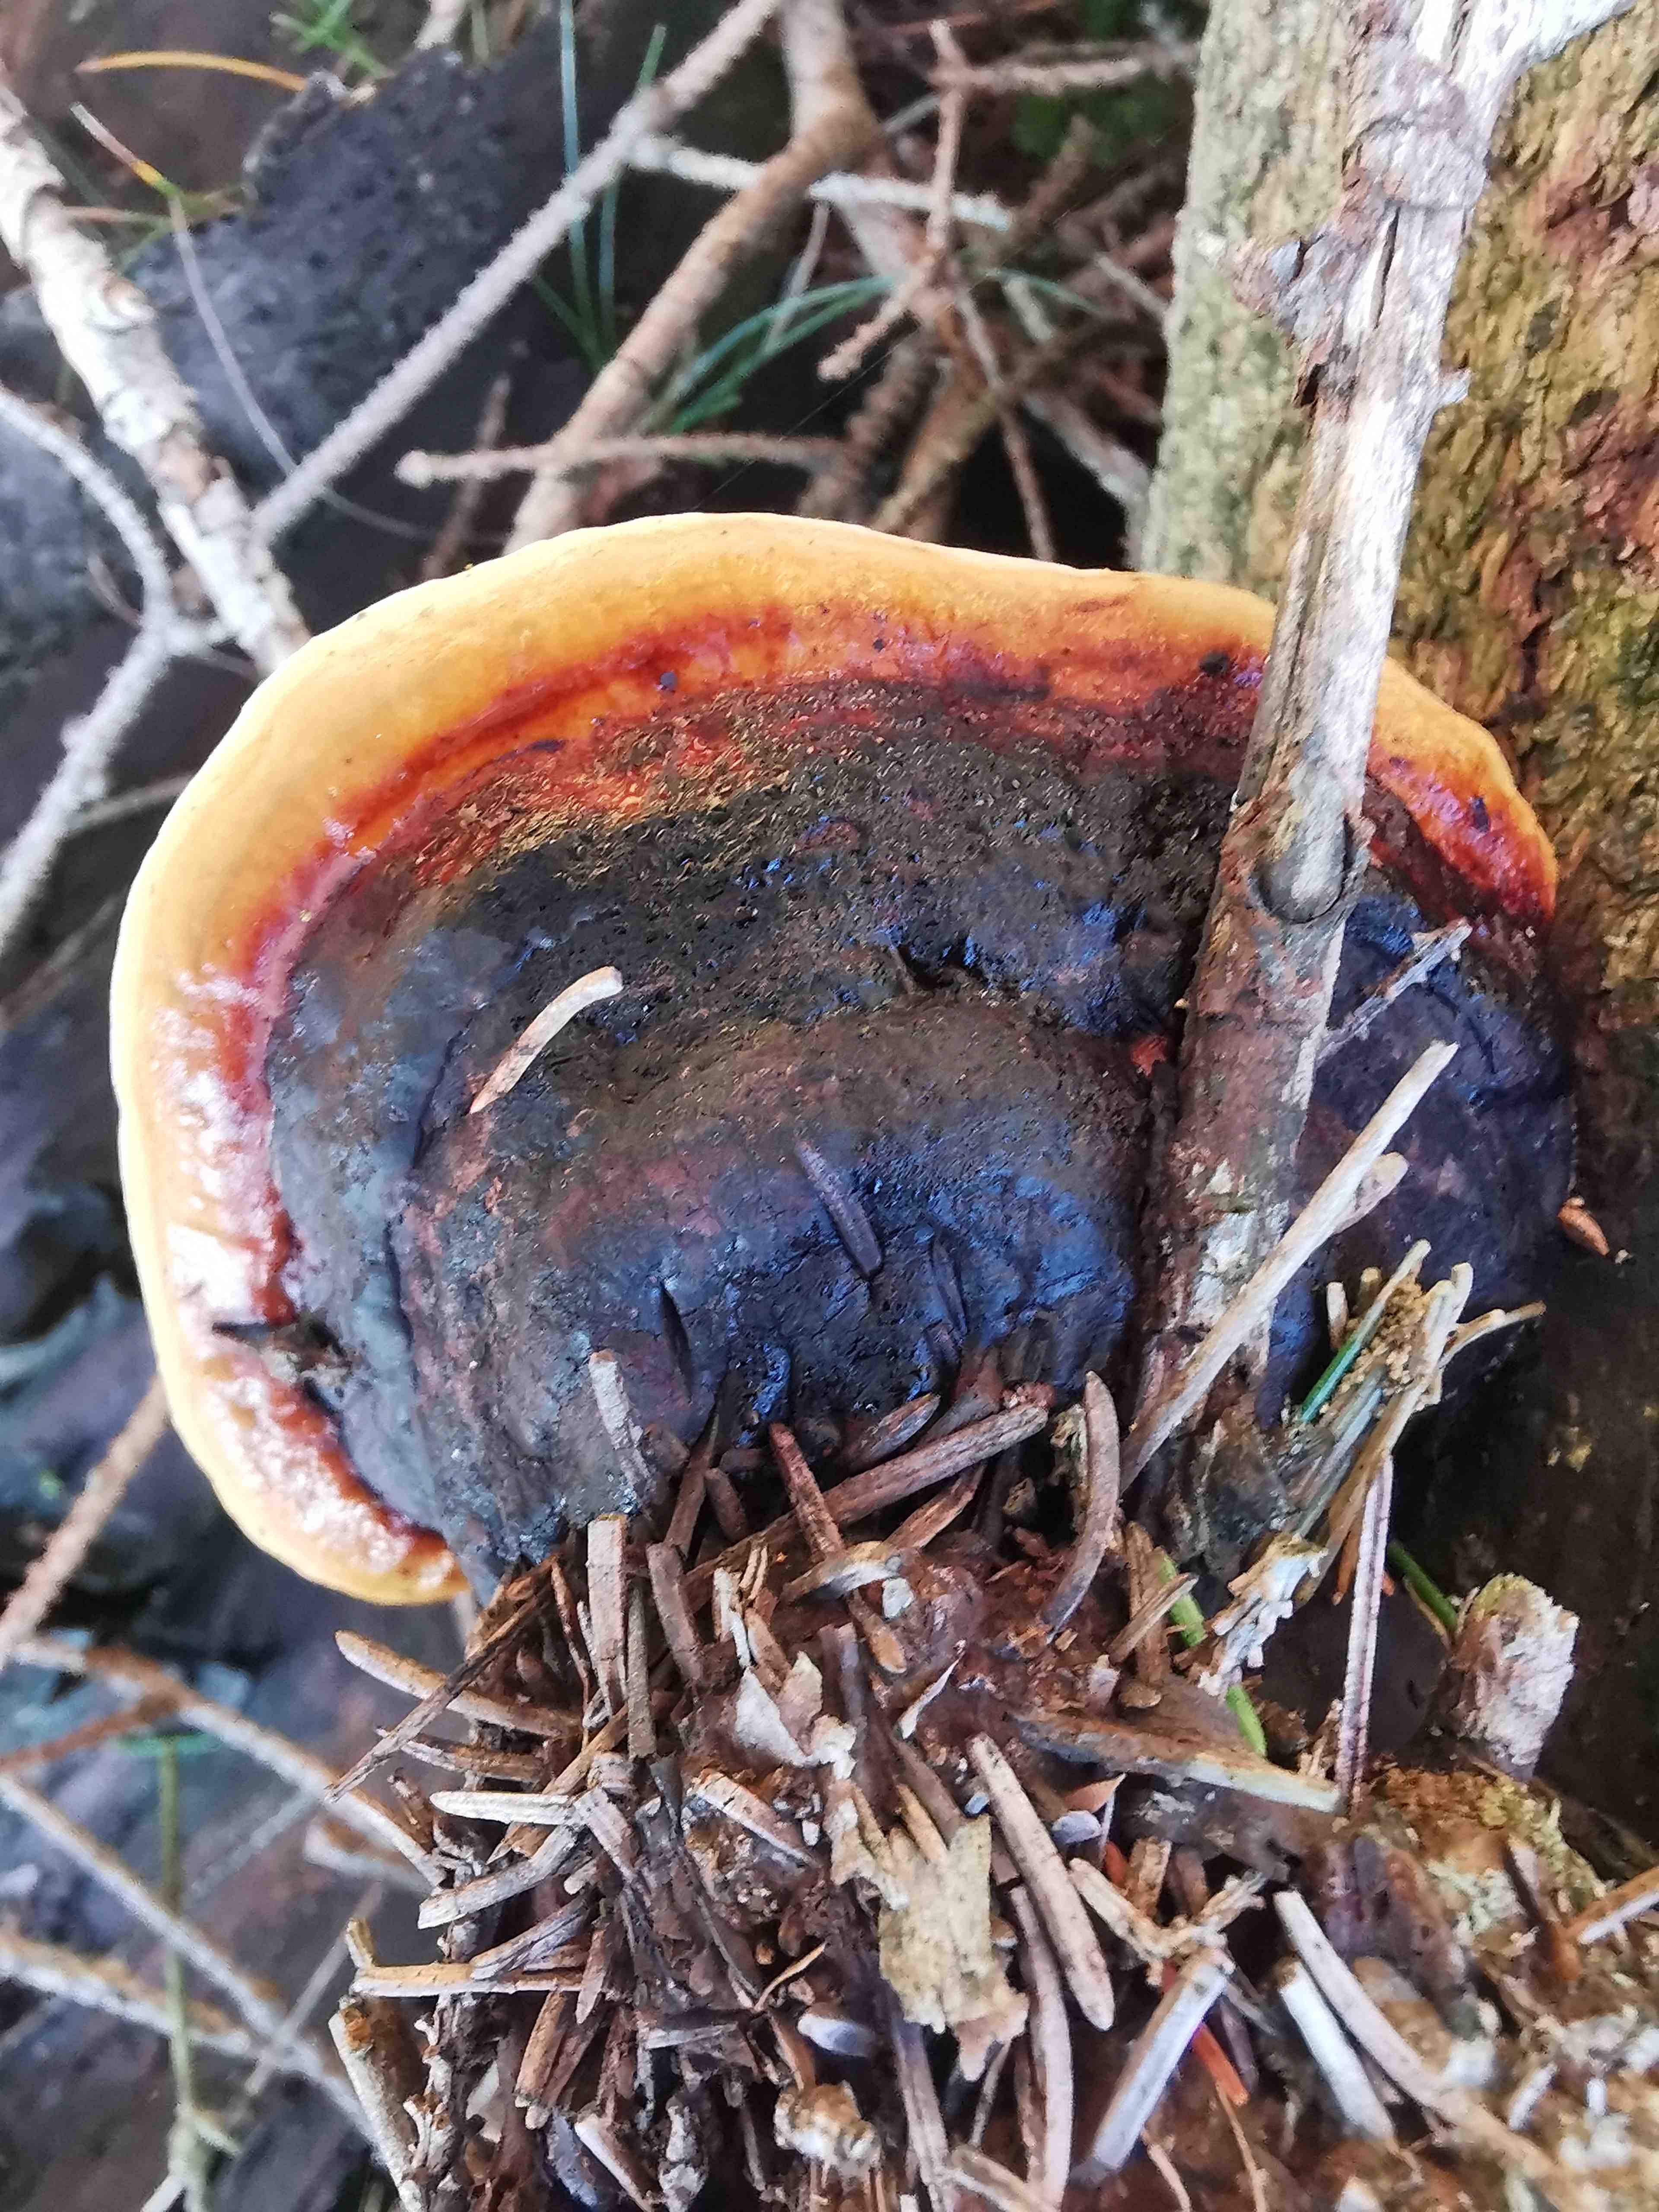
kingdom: Fungi
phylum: Basidiomycota
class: Agaricomycetes
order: Polyporales
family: Fomitopsidaceae
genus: Fomitopsis
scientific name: Fomitopsis pinicola
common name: randbæltet hovporesvamp
